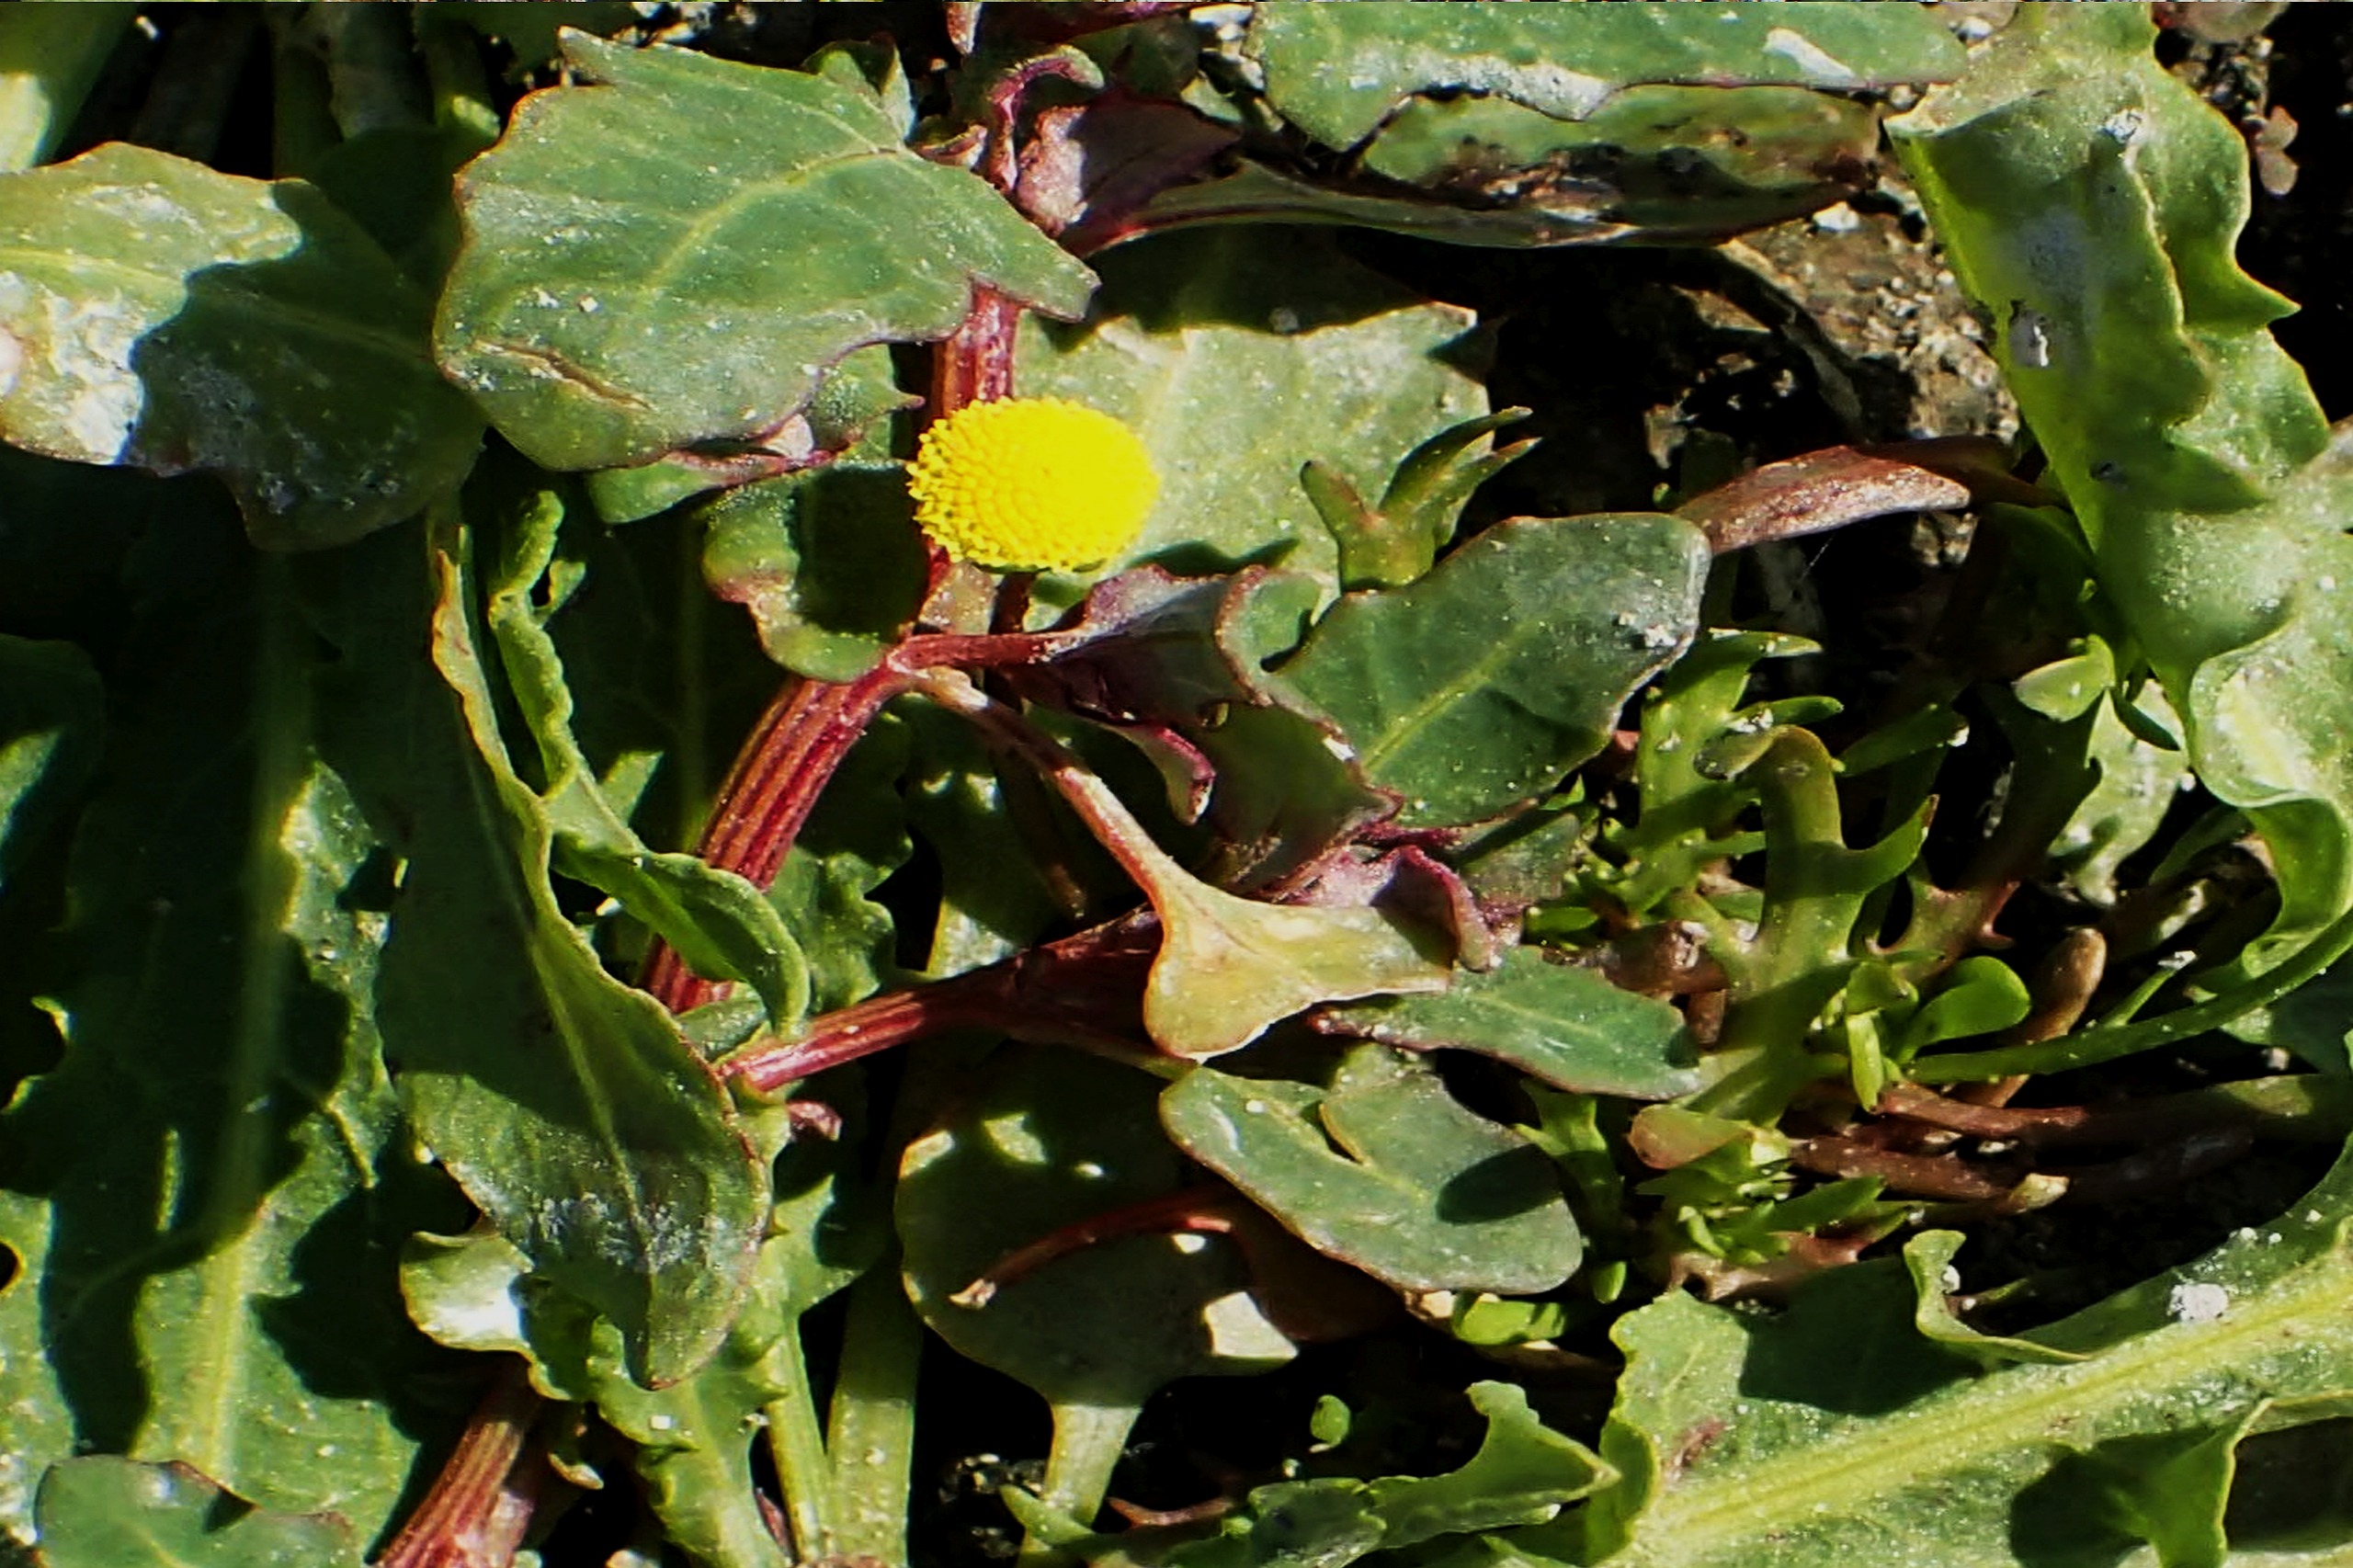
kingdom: Plantae
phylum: Tracheophyta
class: Magnoliopsida
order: Asterales
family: Asteraceae
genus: Cotula
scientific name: Cotula coronopifolia
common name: Firkløft
